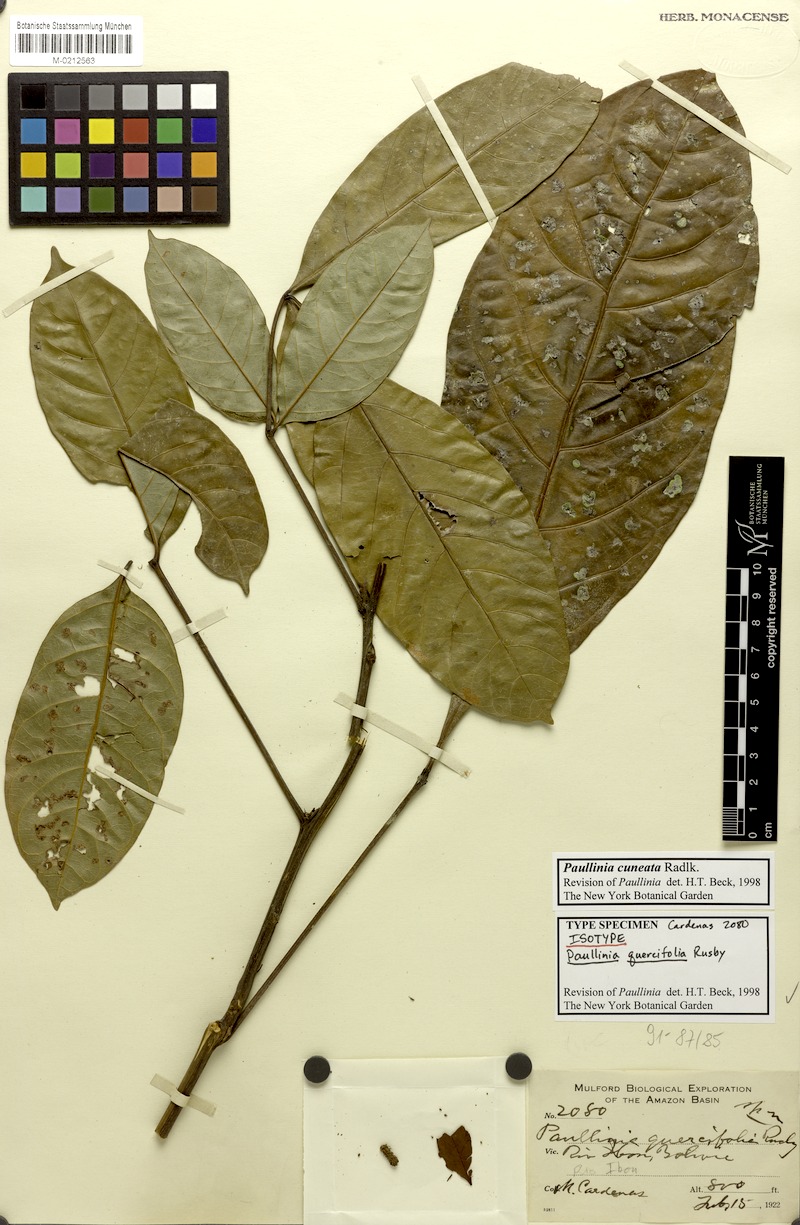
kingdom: Plantae
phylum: Tracheophyta
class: Magnoliopsida
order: Sapindales
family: Sapindaceae
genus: Paullinia
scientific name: Paullinia cuneata
